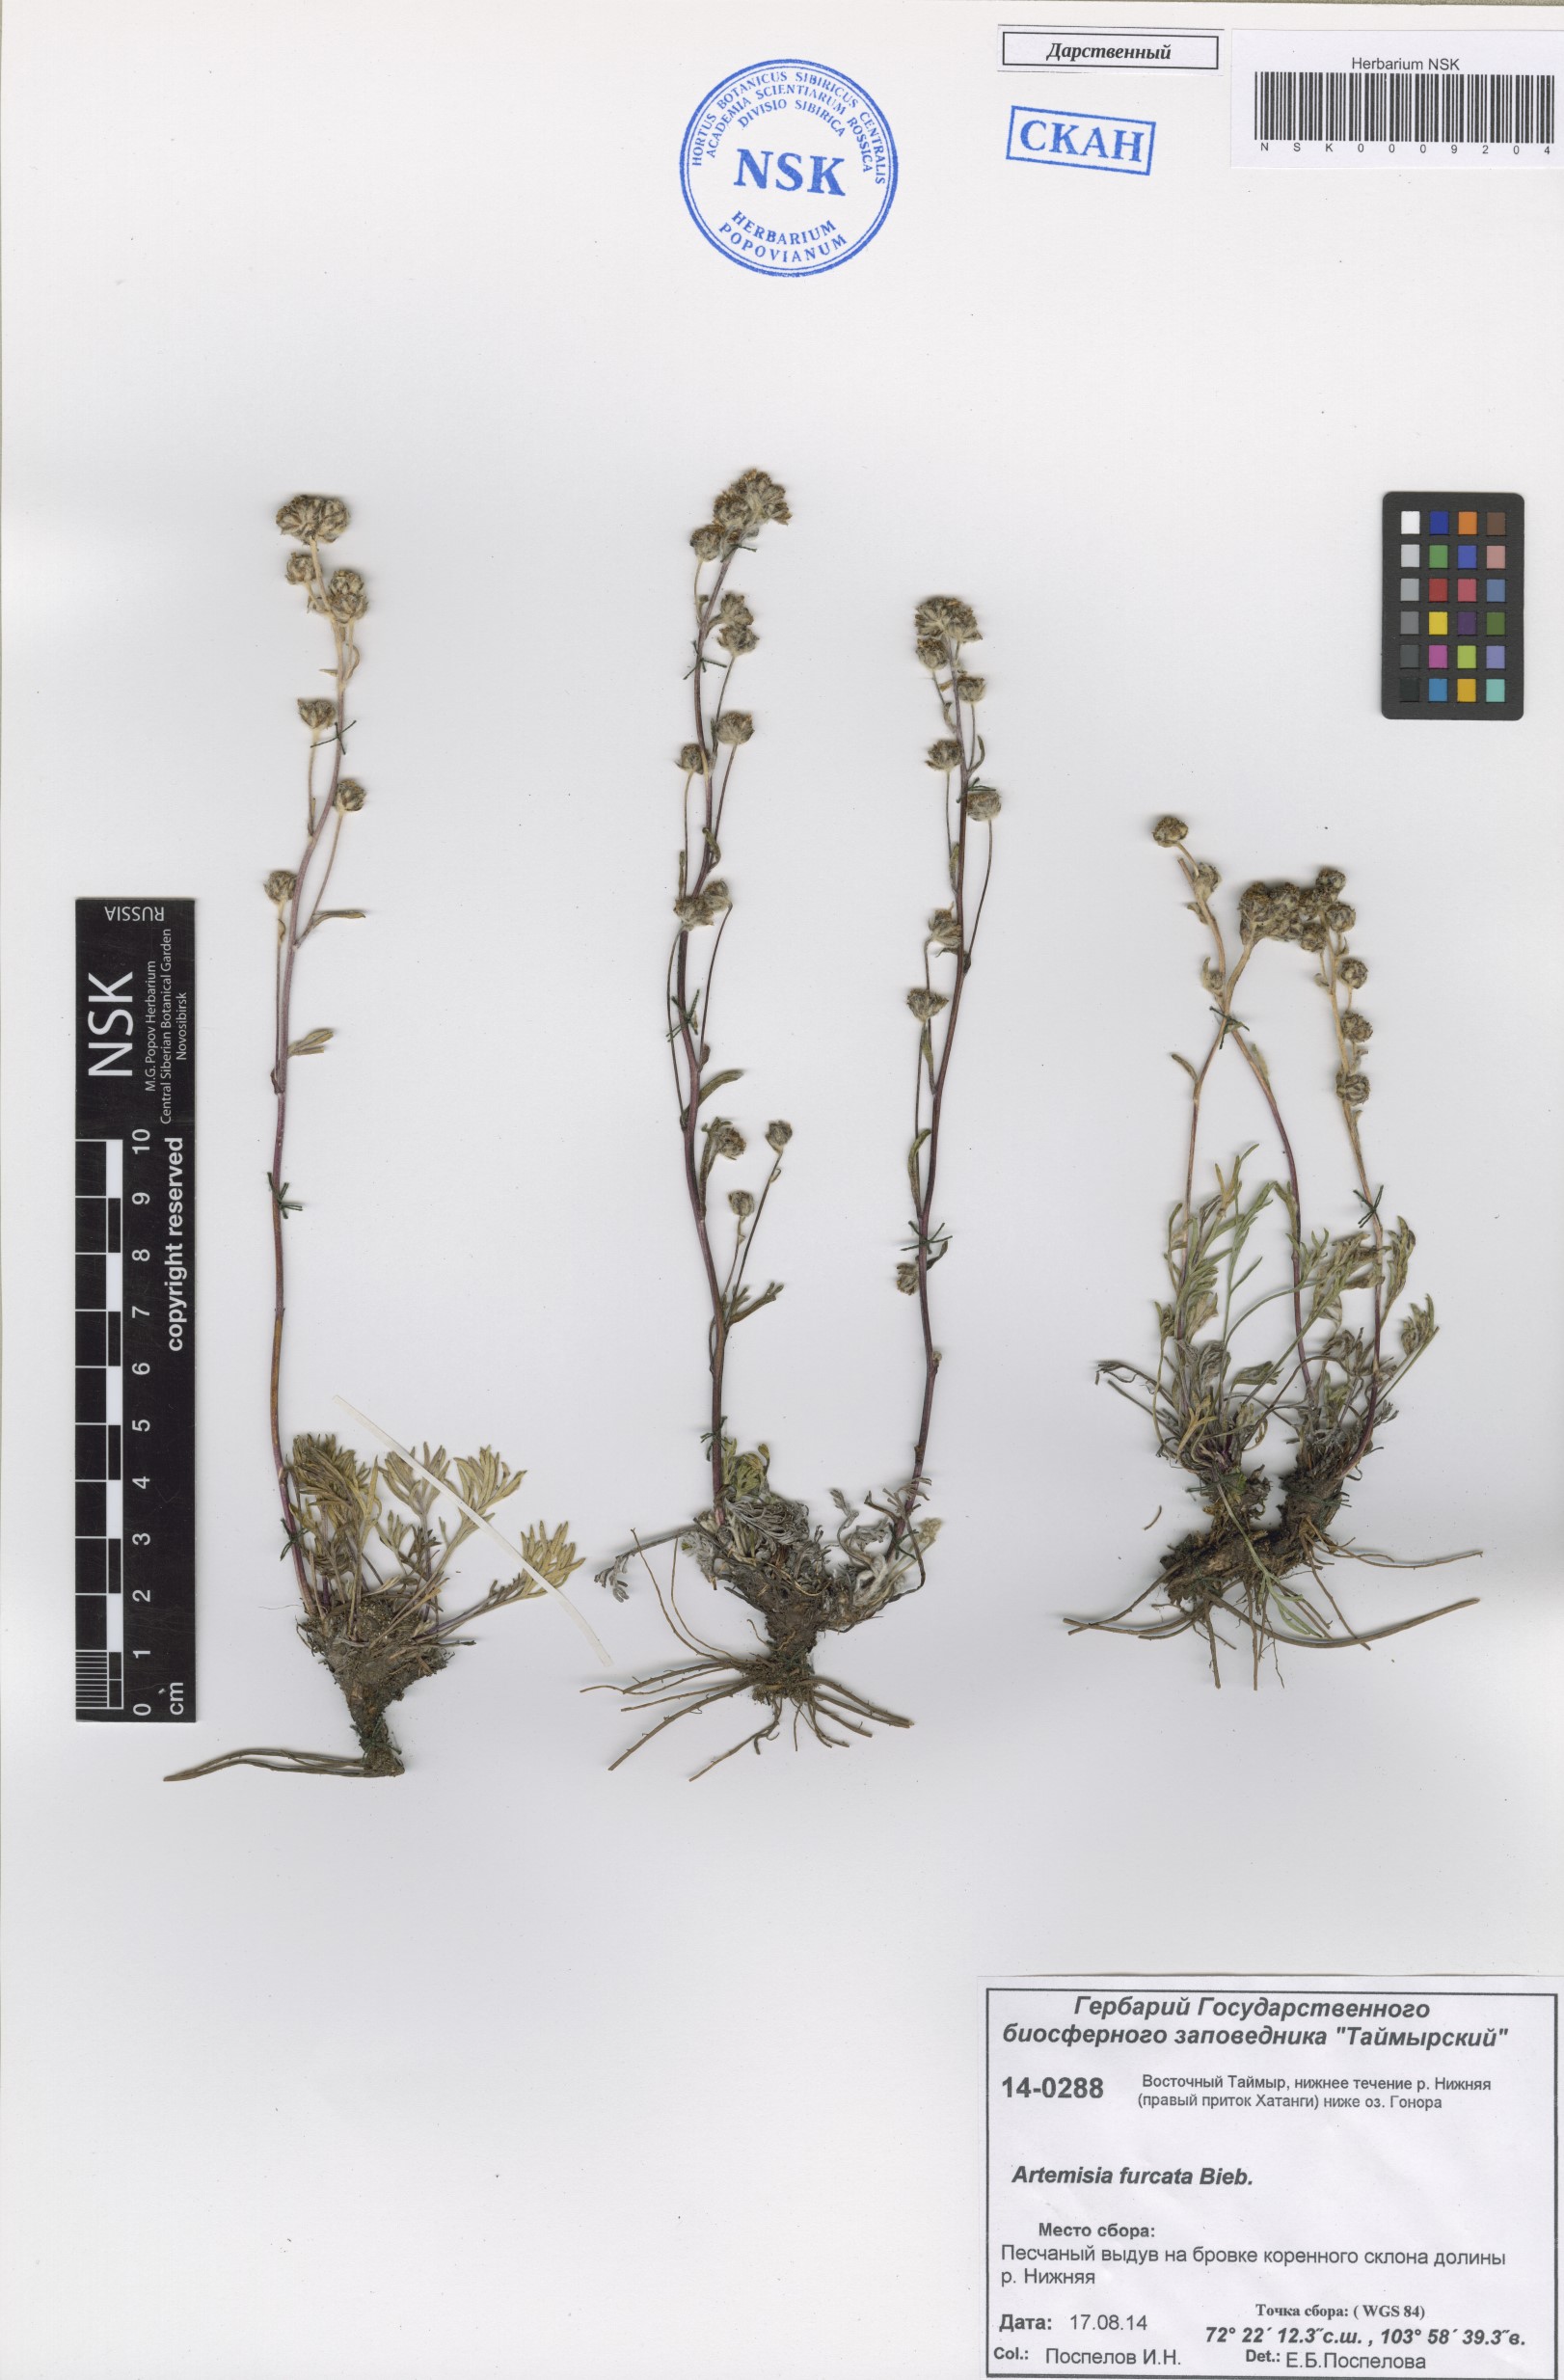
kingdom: Plantae
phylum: Tracheophyta
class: Magnoliopsida
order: Asterales
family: Asteraceae
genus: Artemisia
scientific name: Artemisia furcata
